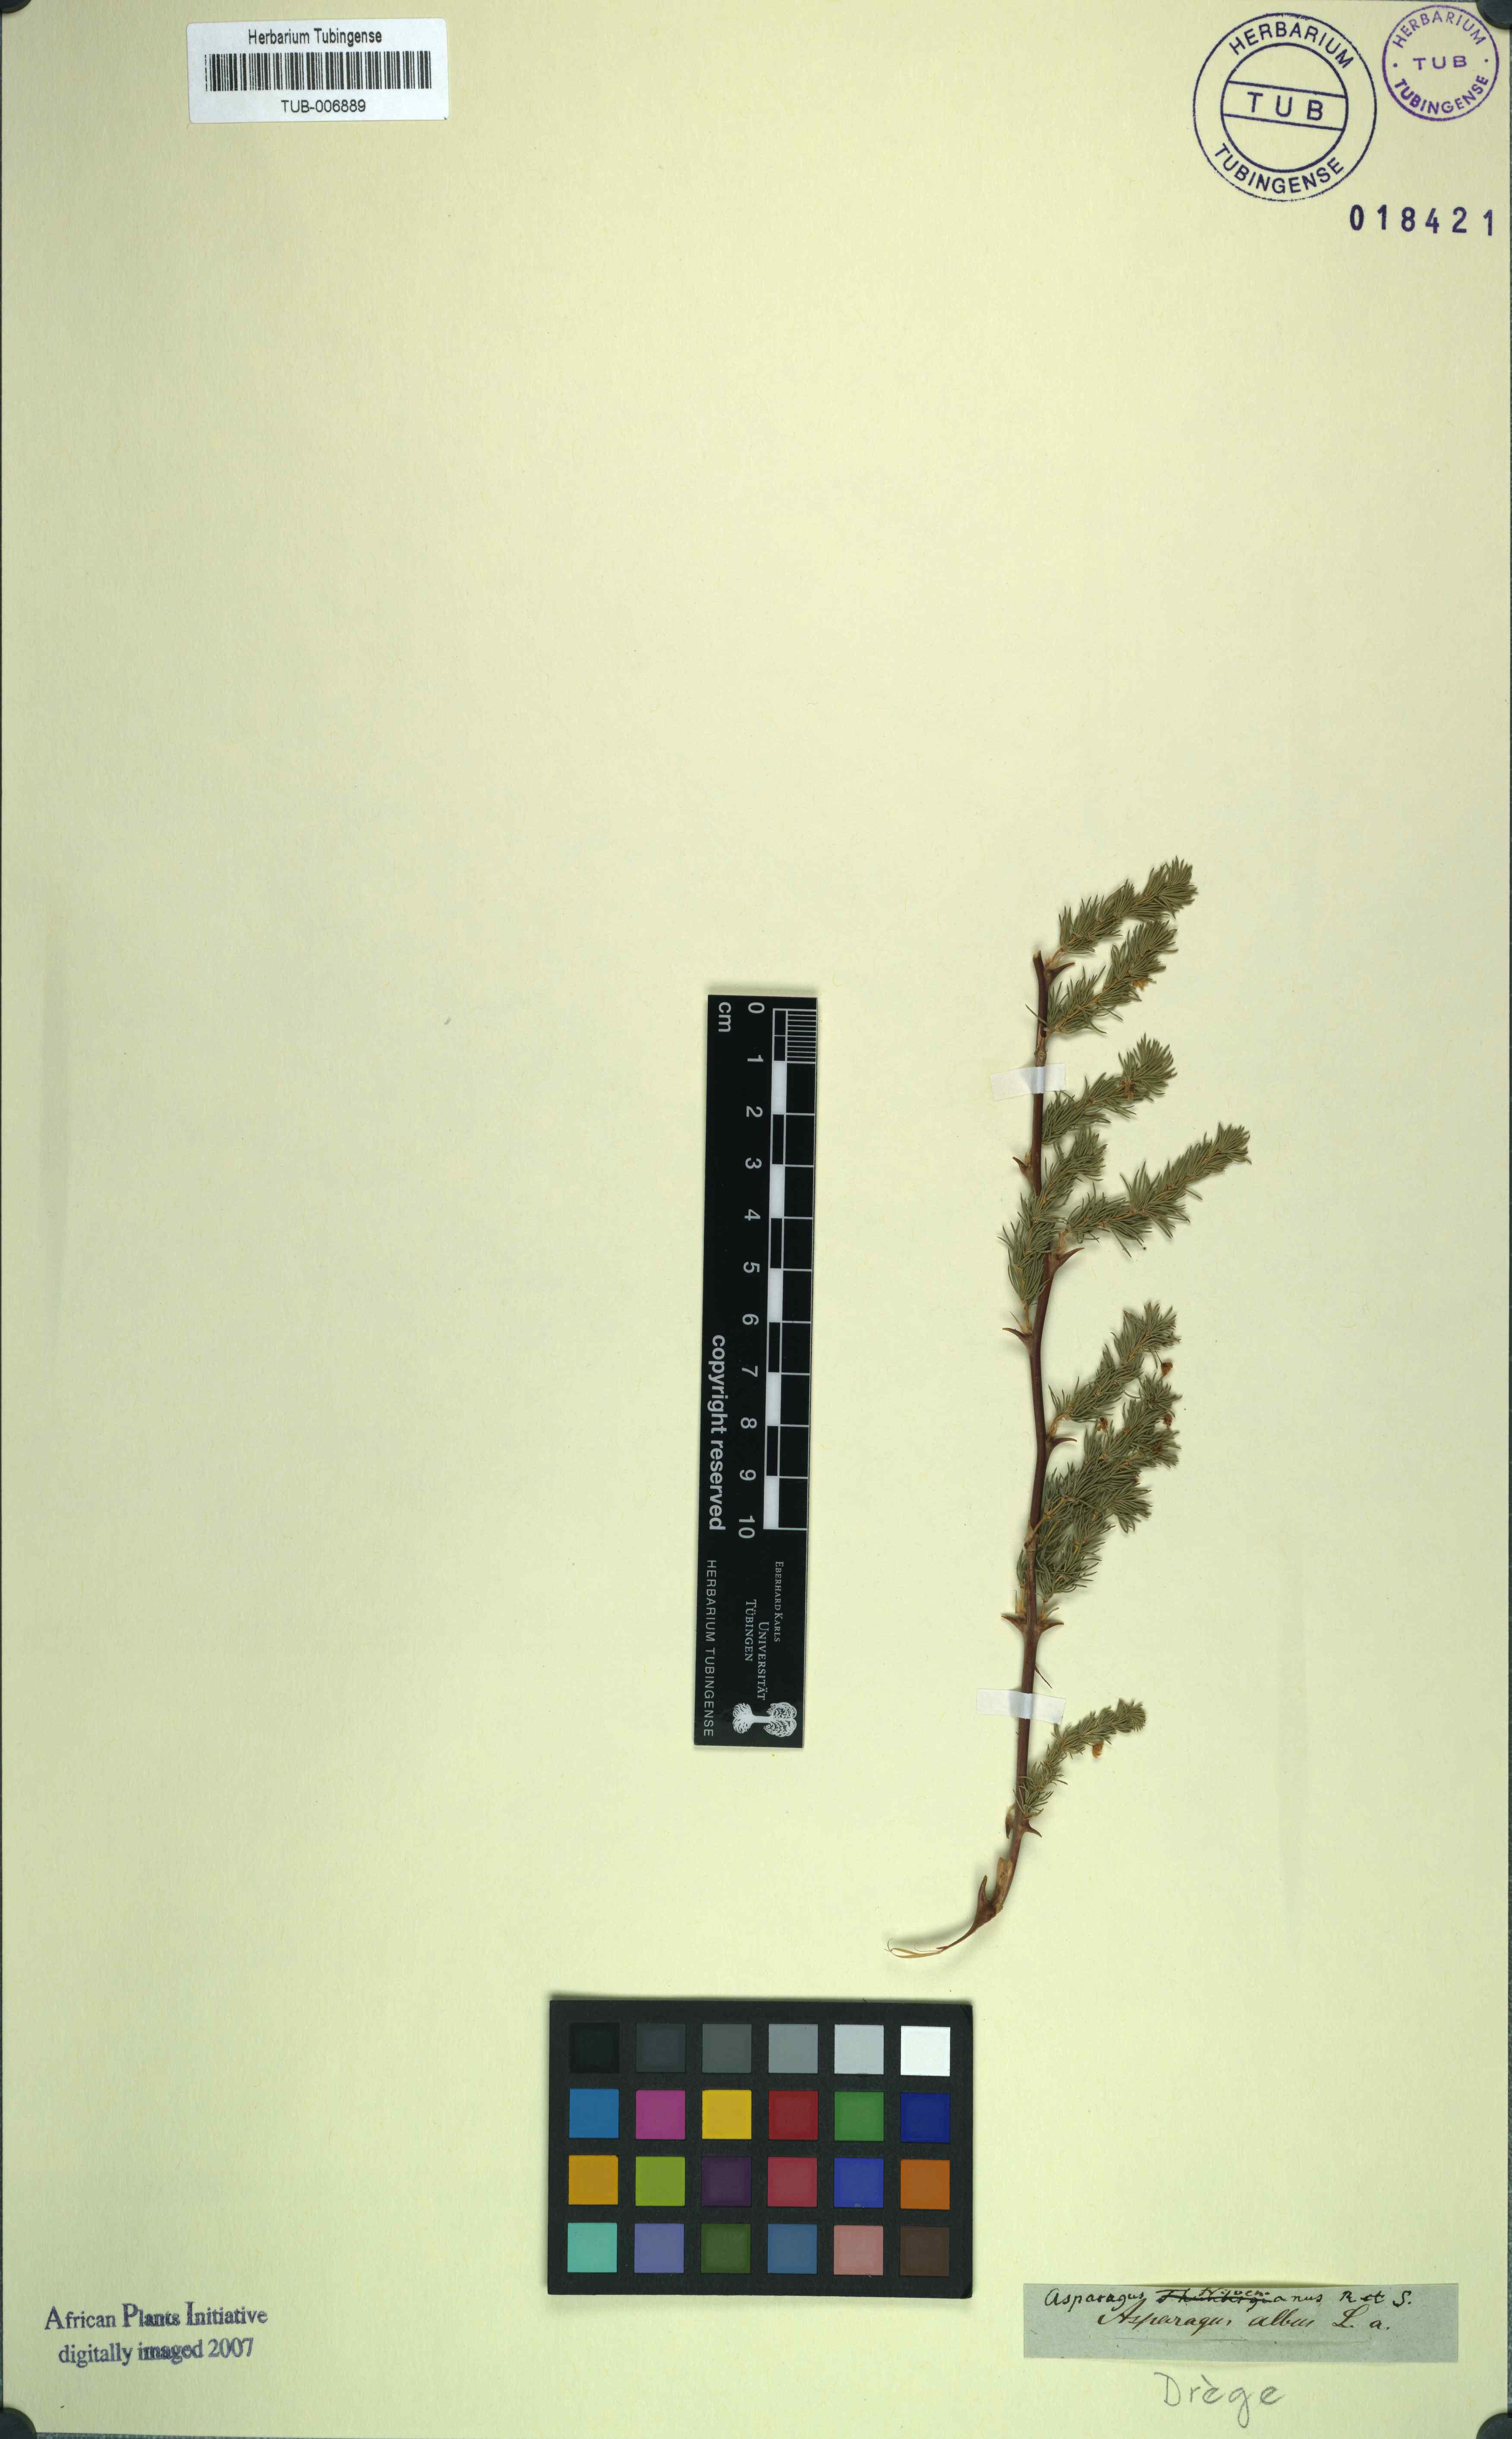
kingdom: Plantae
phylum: Tracheophyta
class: Liliopsida
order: Asparagales
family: Asparagaceae
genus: Asparagus
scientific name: Asparagus rubicundus
